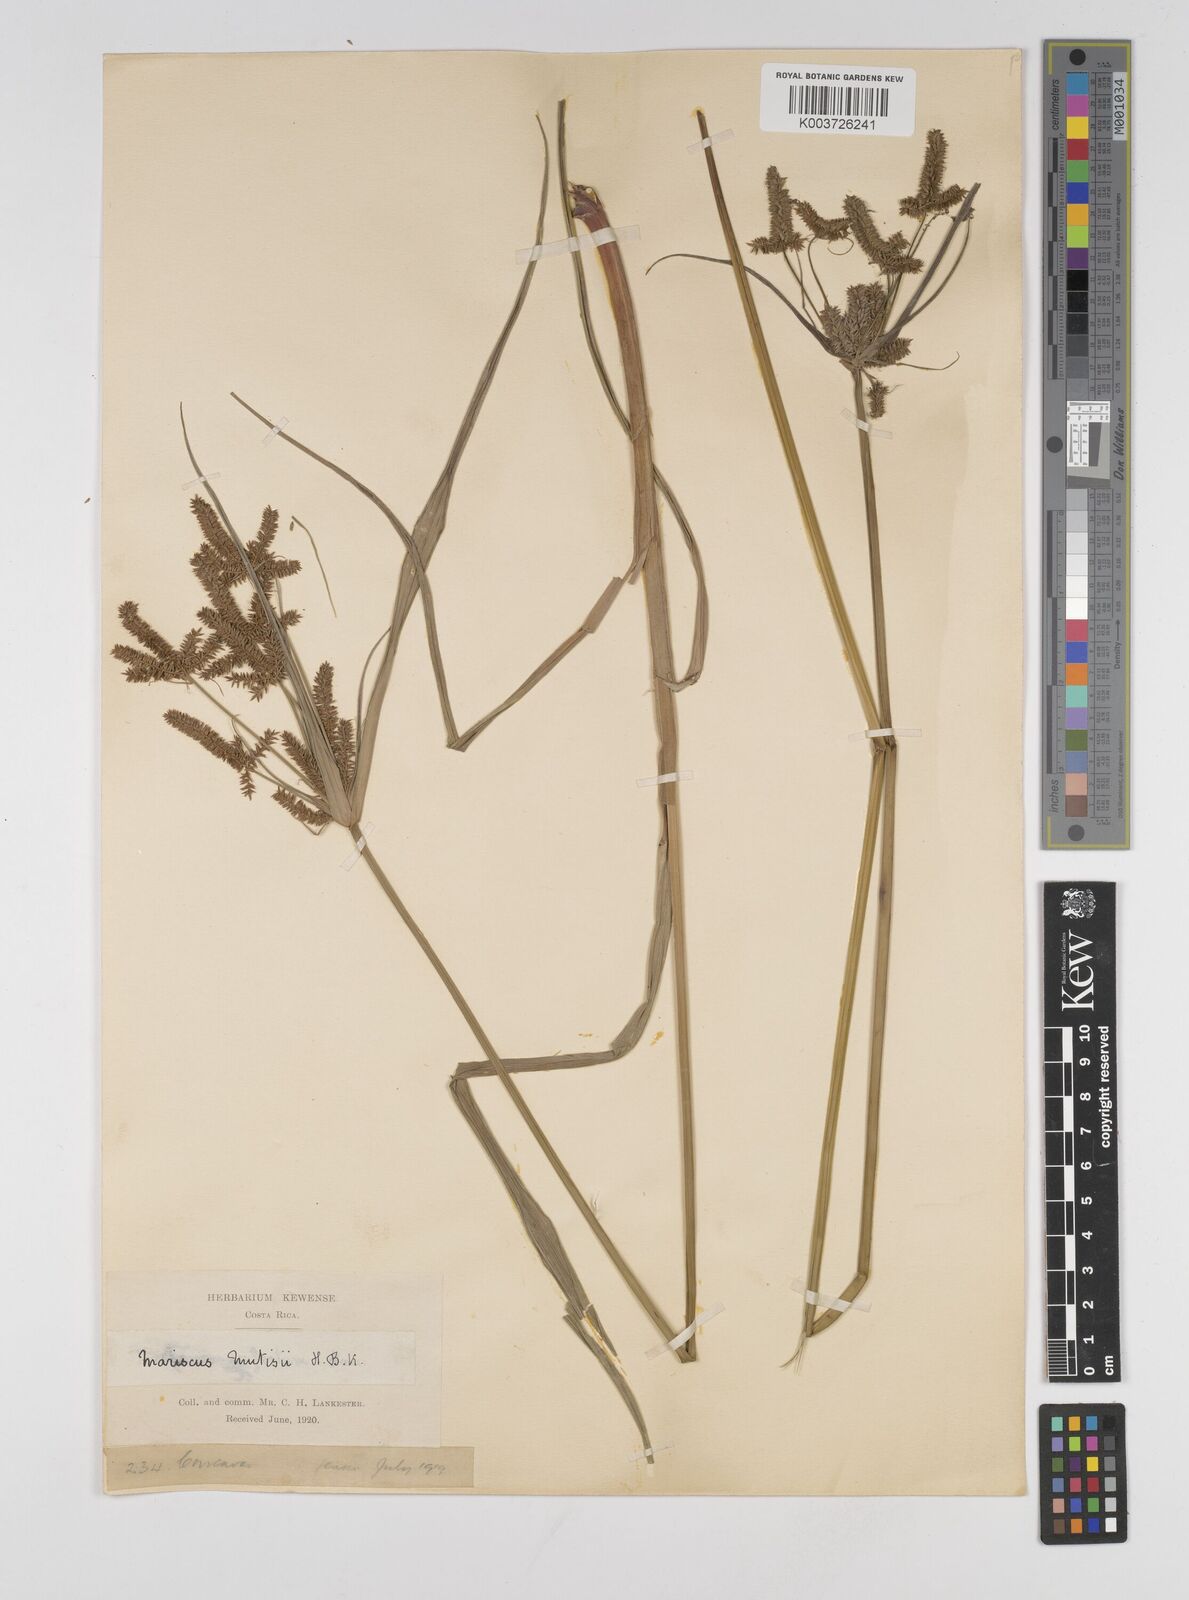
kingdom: Plantae
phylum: Tracheophyta
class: Liliopsida
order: Poales
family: Cyperaceae
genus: Cyperus
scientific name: Cyperus mutisii
